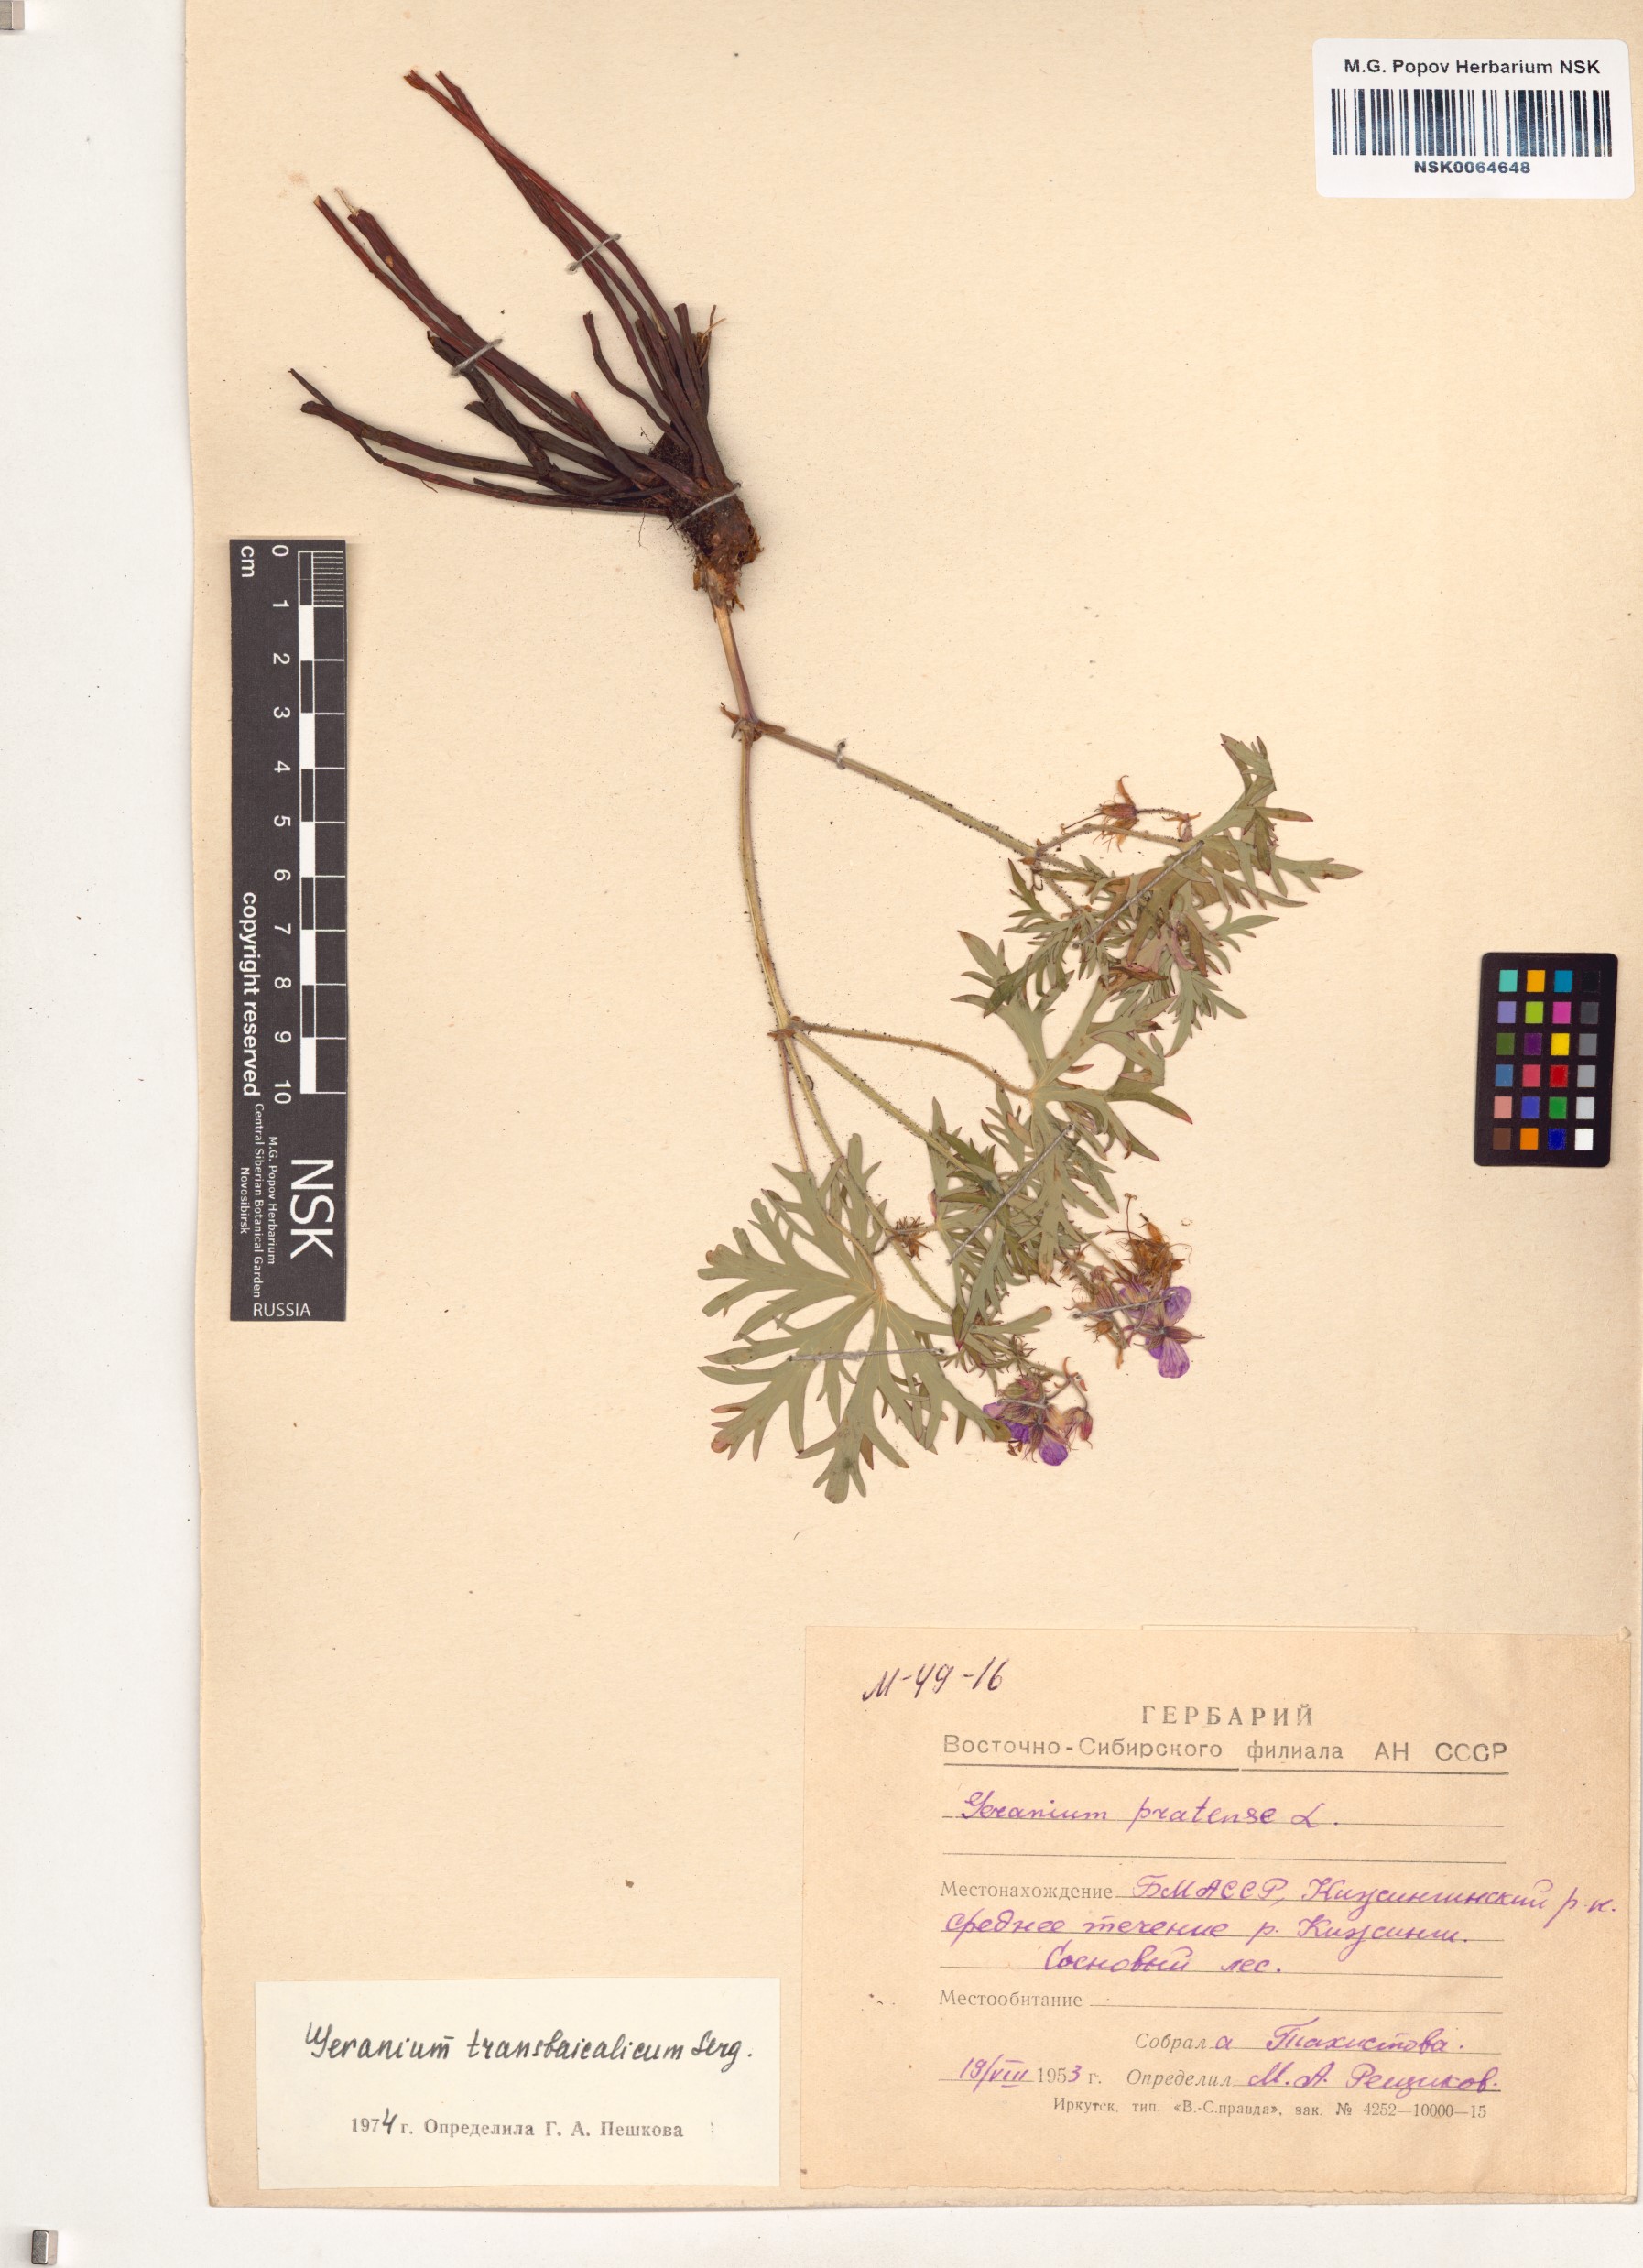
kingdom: Plantae
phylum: Tracheophyta
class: Magnoliopsida
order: Geraniales
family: Geraniaceae
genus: Geranium
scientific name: Geranium pratense
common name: Meadow crane's-bill
